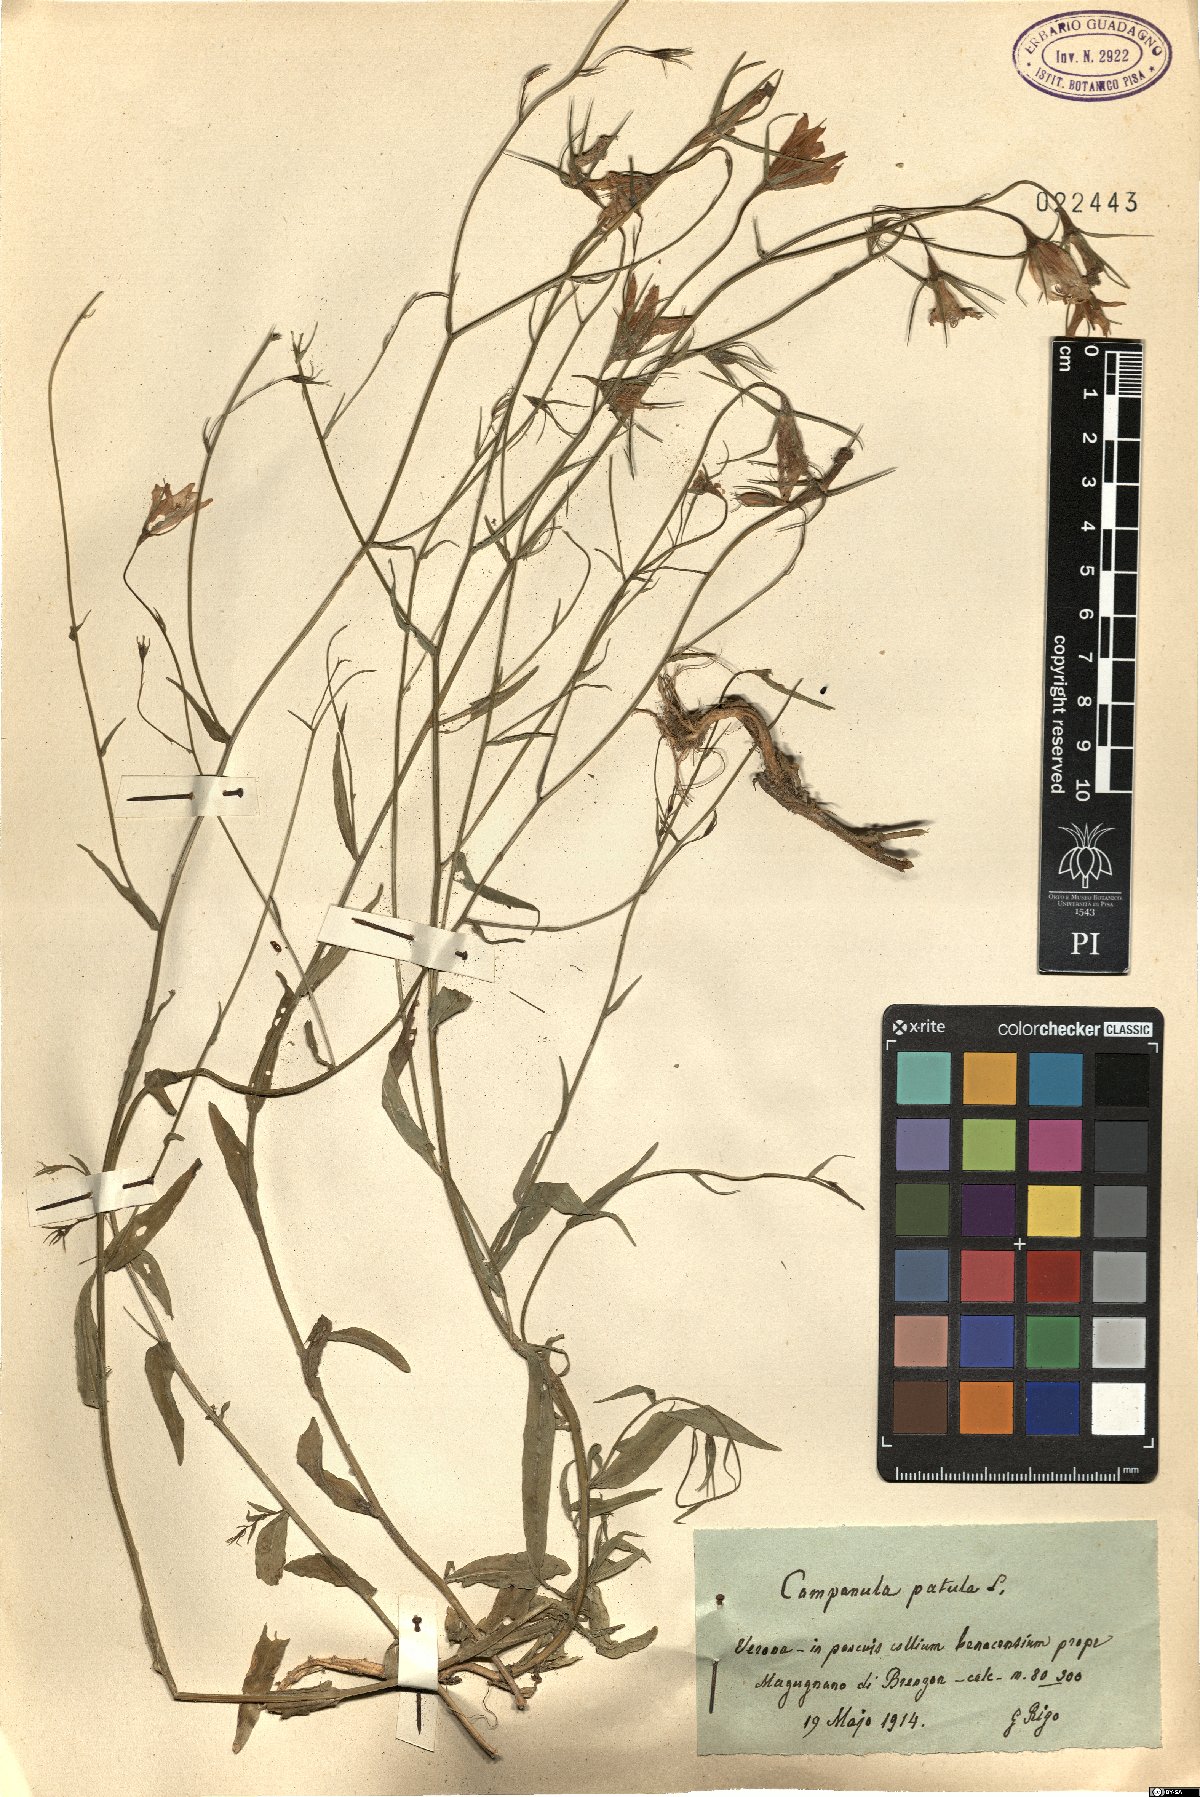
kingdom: Plantae
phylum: Tracheophyta
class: Magnoliopsida
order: Asterales
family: Campanulaceae
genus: Campanula
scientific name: Campanula patula
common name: Spreading bellflower
